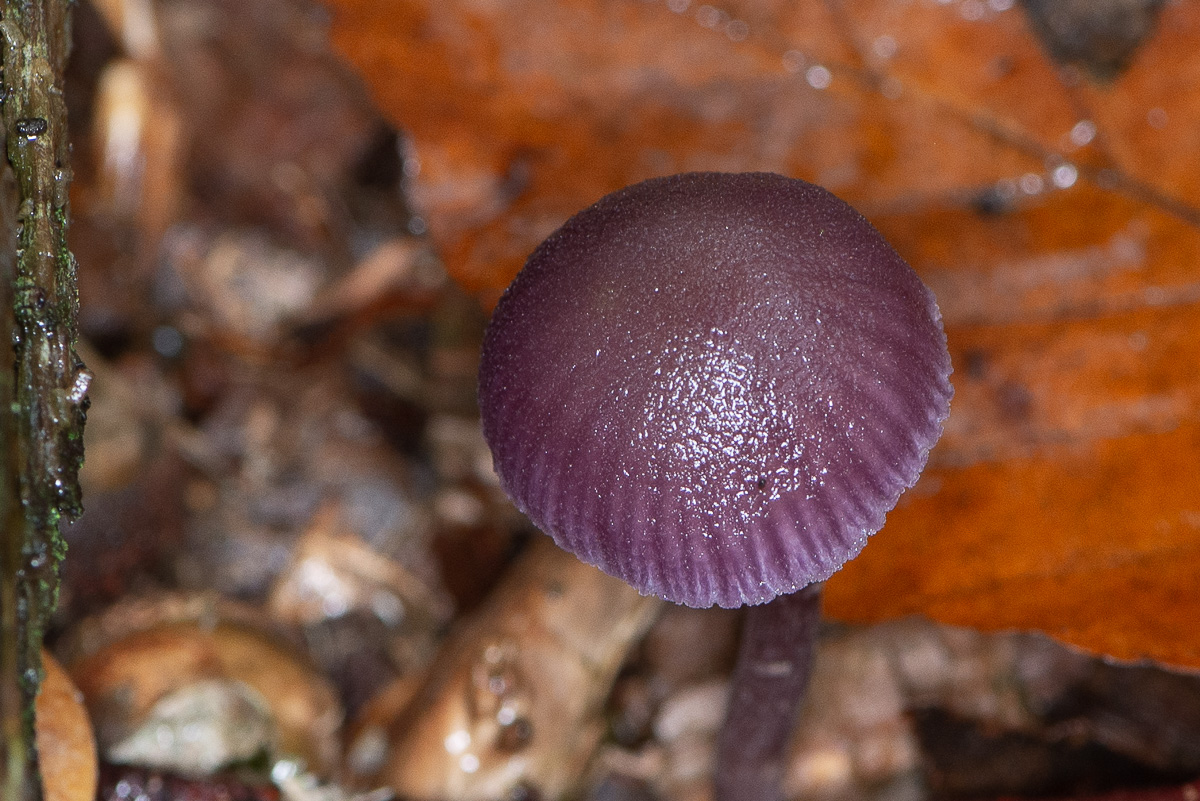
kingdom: Fungi
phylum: Basidiomycota
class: Agaricomycetes
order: Agaricales
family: Hydnangiaceae
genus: Laccaria
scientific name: Laccaria amethystina
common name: violet ametysthat
